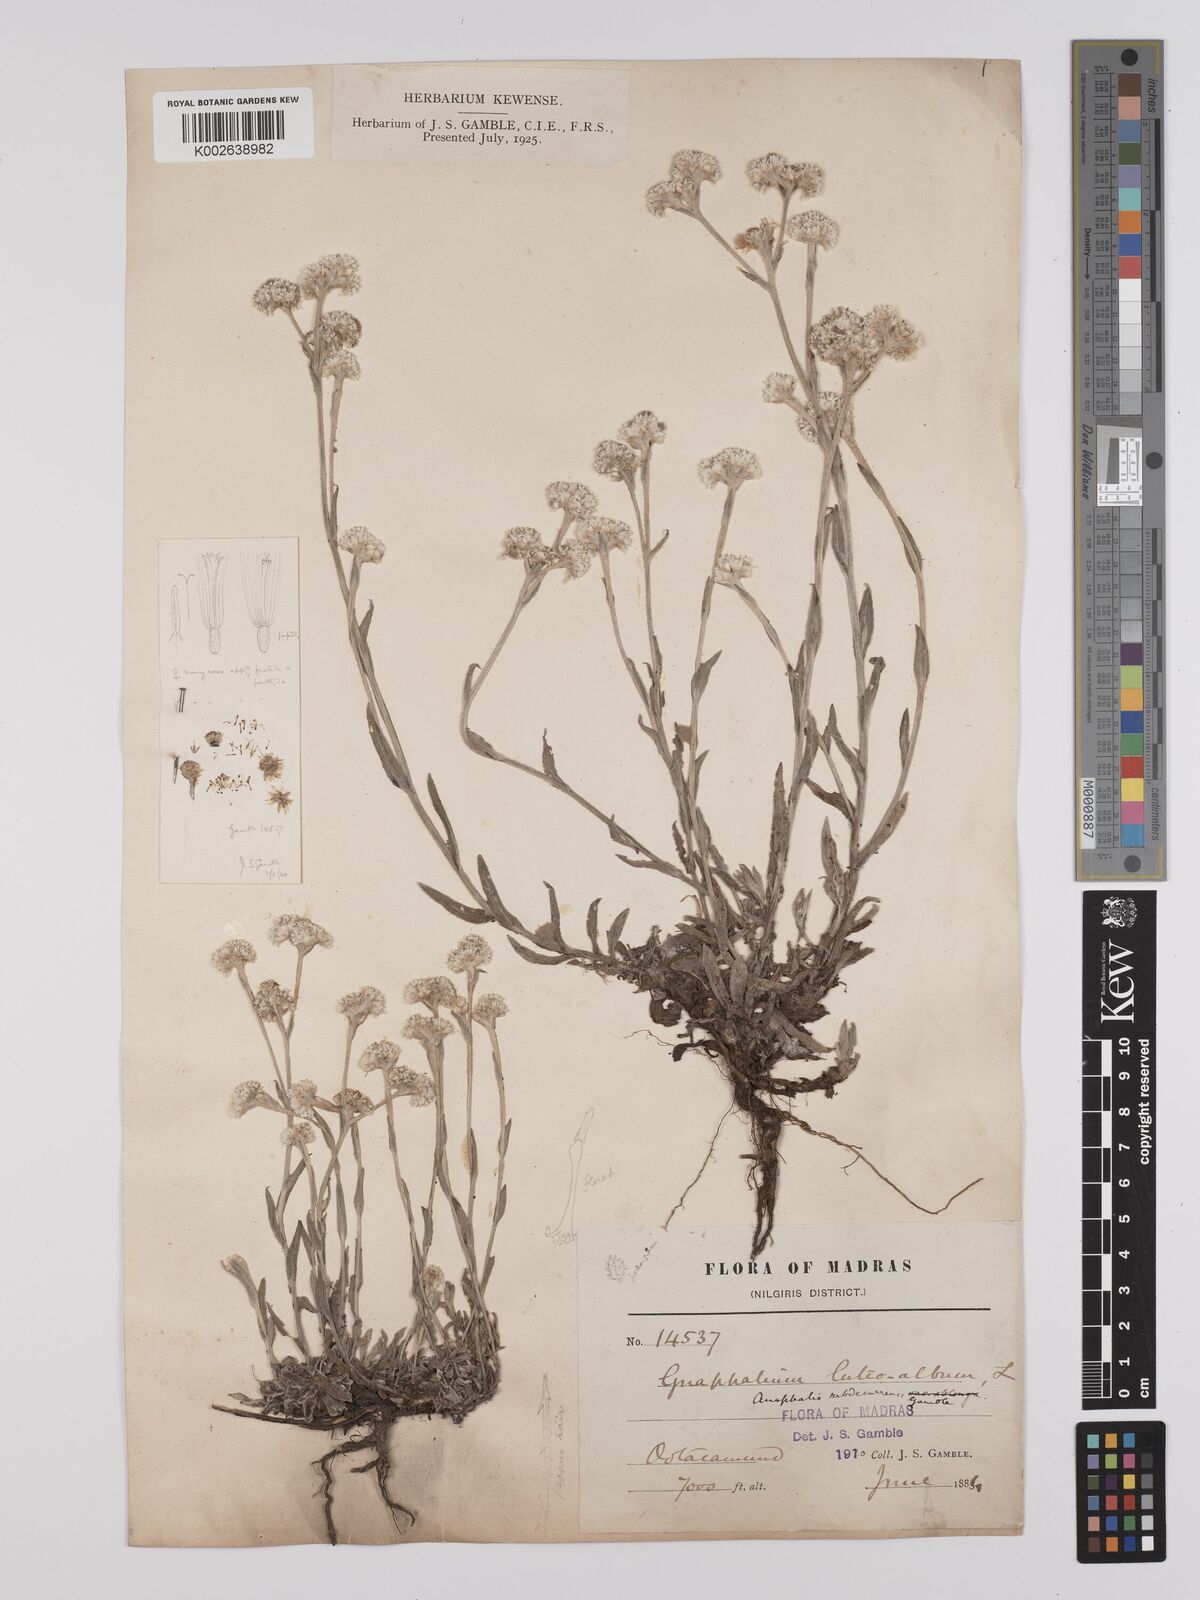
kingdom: Plantae
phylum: Tracheophyta
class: Magnoliopsida
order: Asterales
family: Asteraceae
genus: Anaphalis
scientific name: Anaphalis subdecurrens
